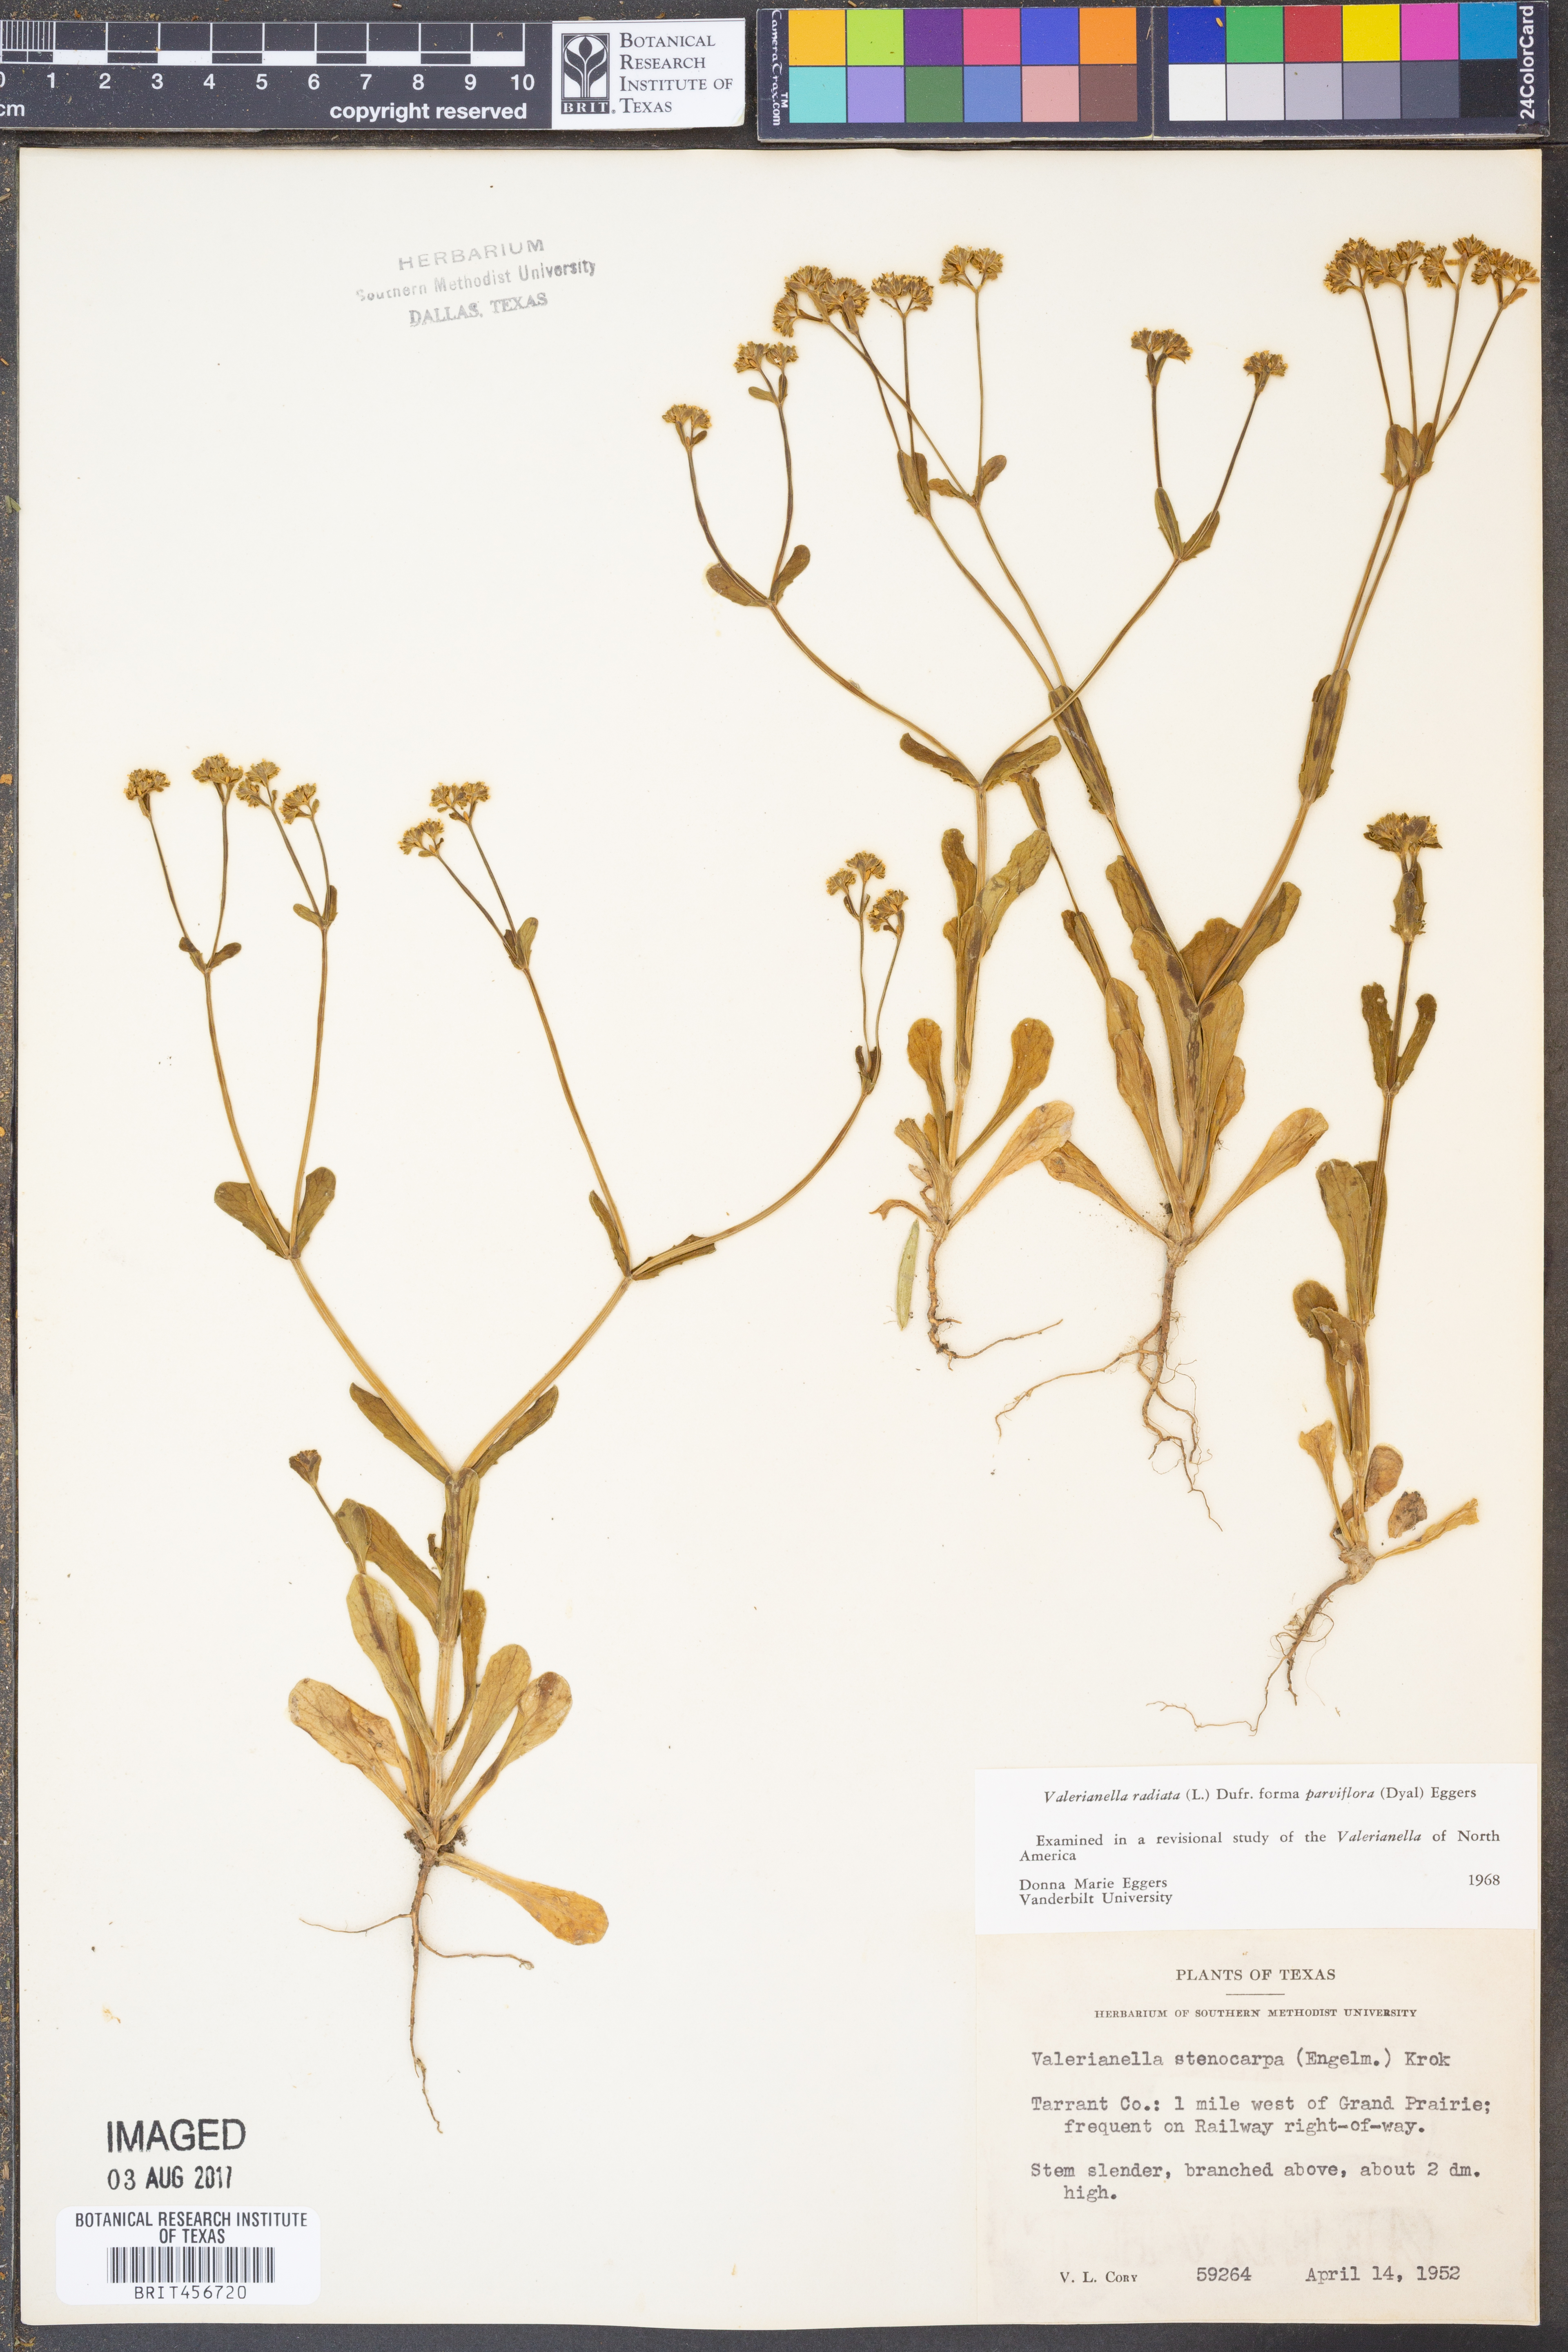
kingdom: Plantae
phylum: Tracheophyta
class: Magnoliopsida
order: Dipsacales
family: Caprifoliaceae
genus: Valerianella
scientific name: Valerianella radiata
